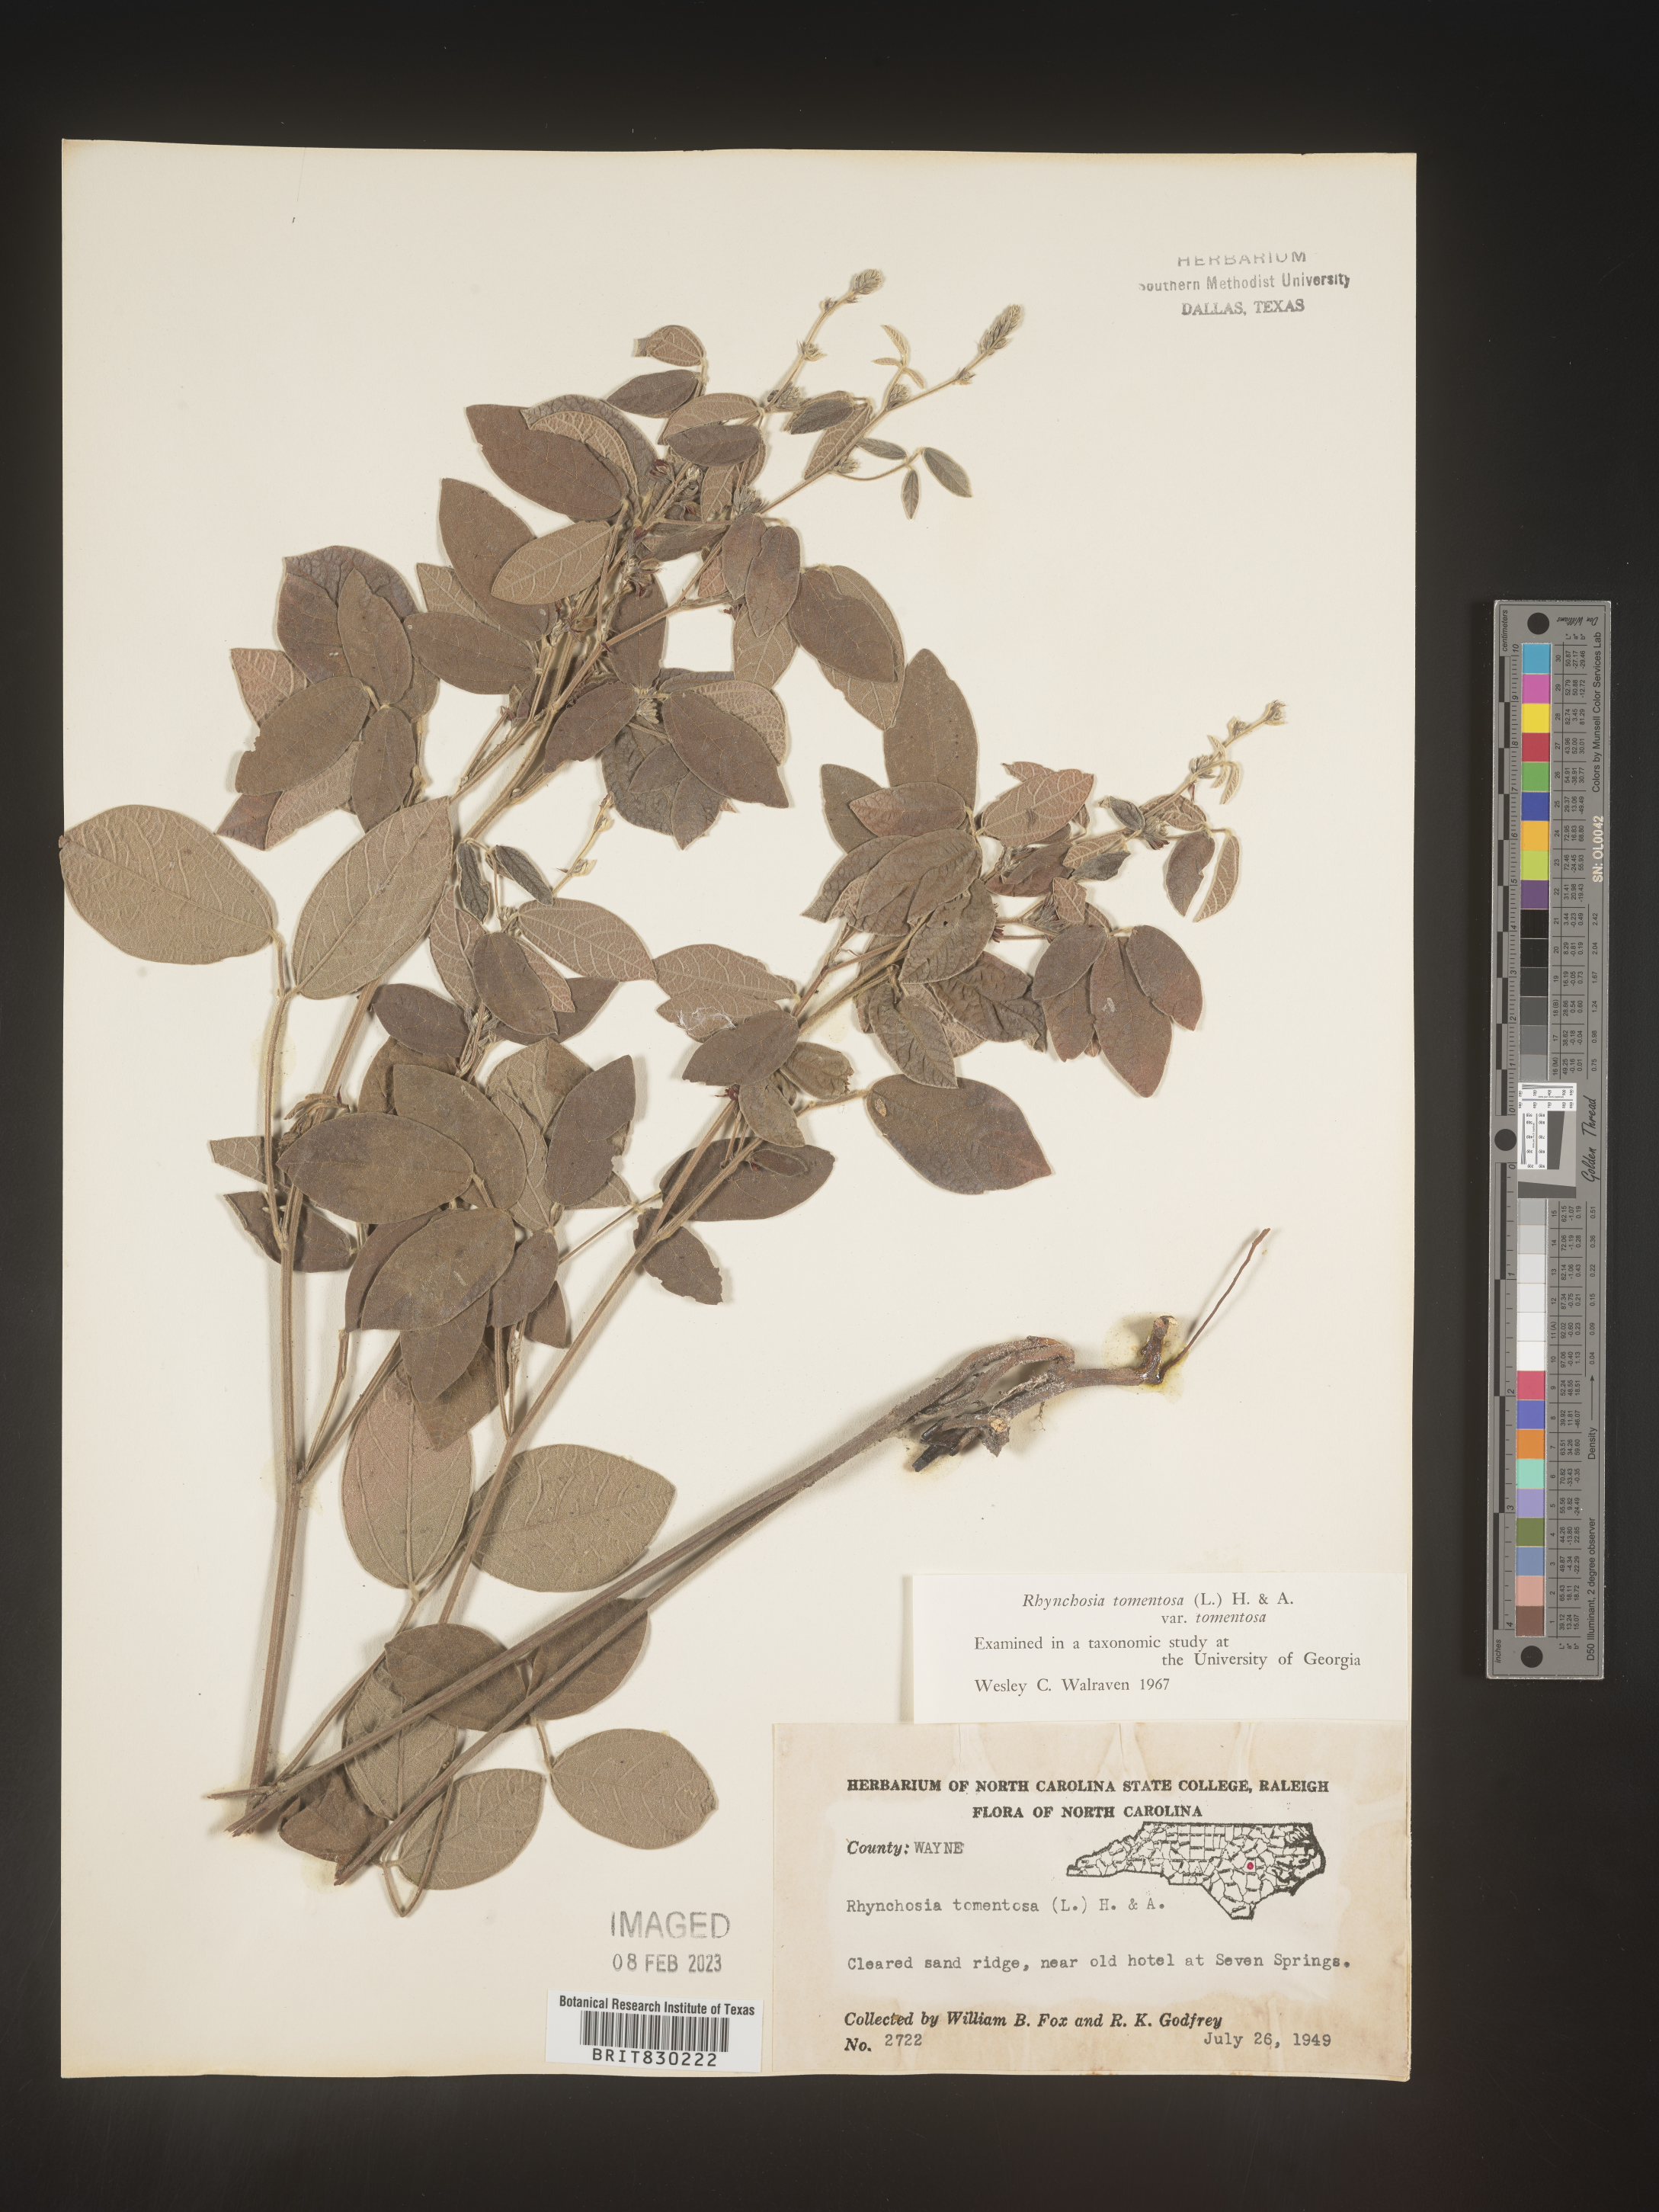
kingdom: Plantae
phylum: Tracheophyta
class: Magnoliopsida
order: Fabales
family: Fabaceae
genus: Rhynchosia
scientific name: Rhynchosia rothii
